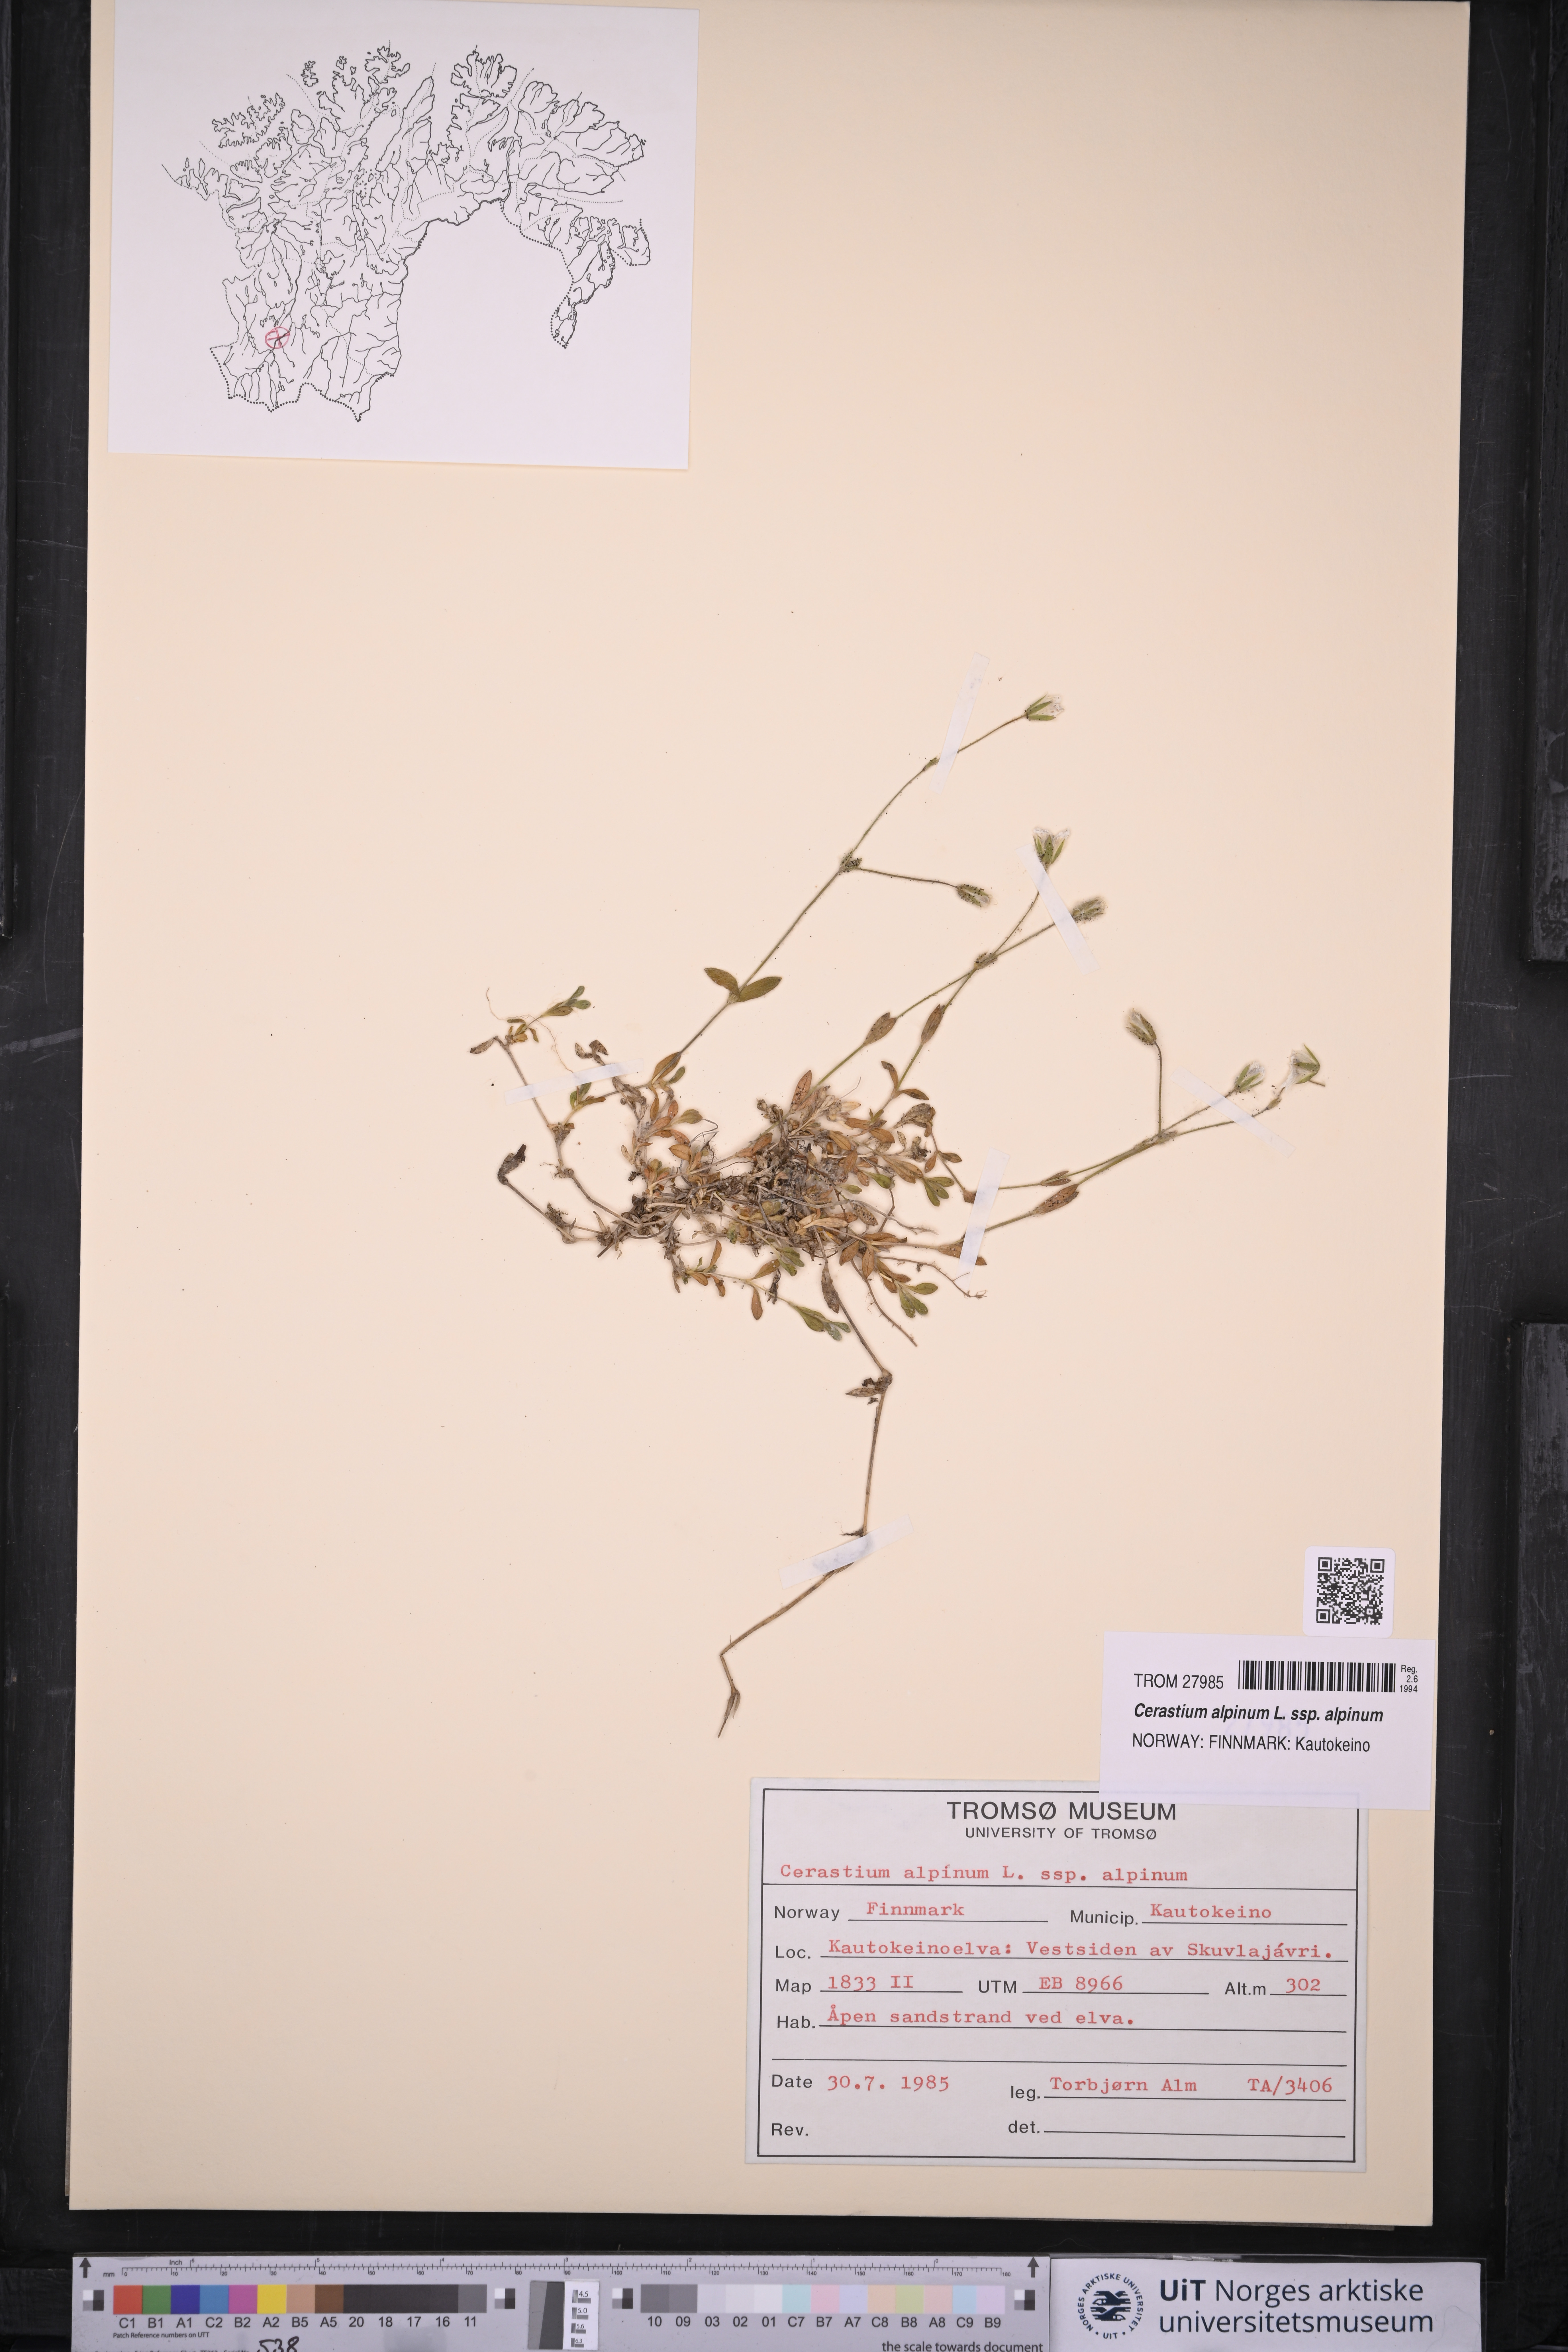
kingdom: Plantae
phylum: Tracheophyta
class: Magnoliopsida
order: Caryophyllales
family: Caryophyllaceae
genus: Cerastium
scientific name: Cerastium alpinum
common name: Alpine mouse-ear
